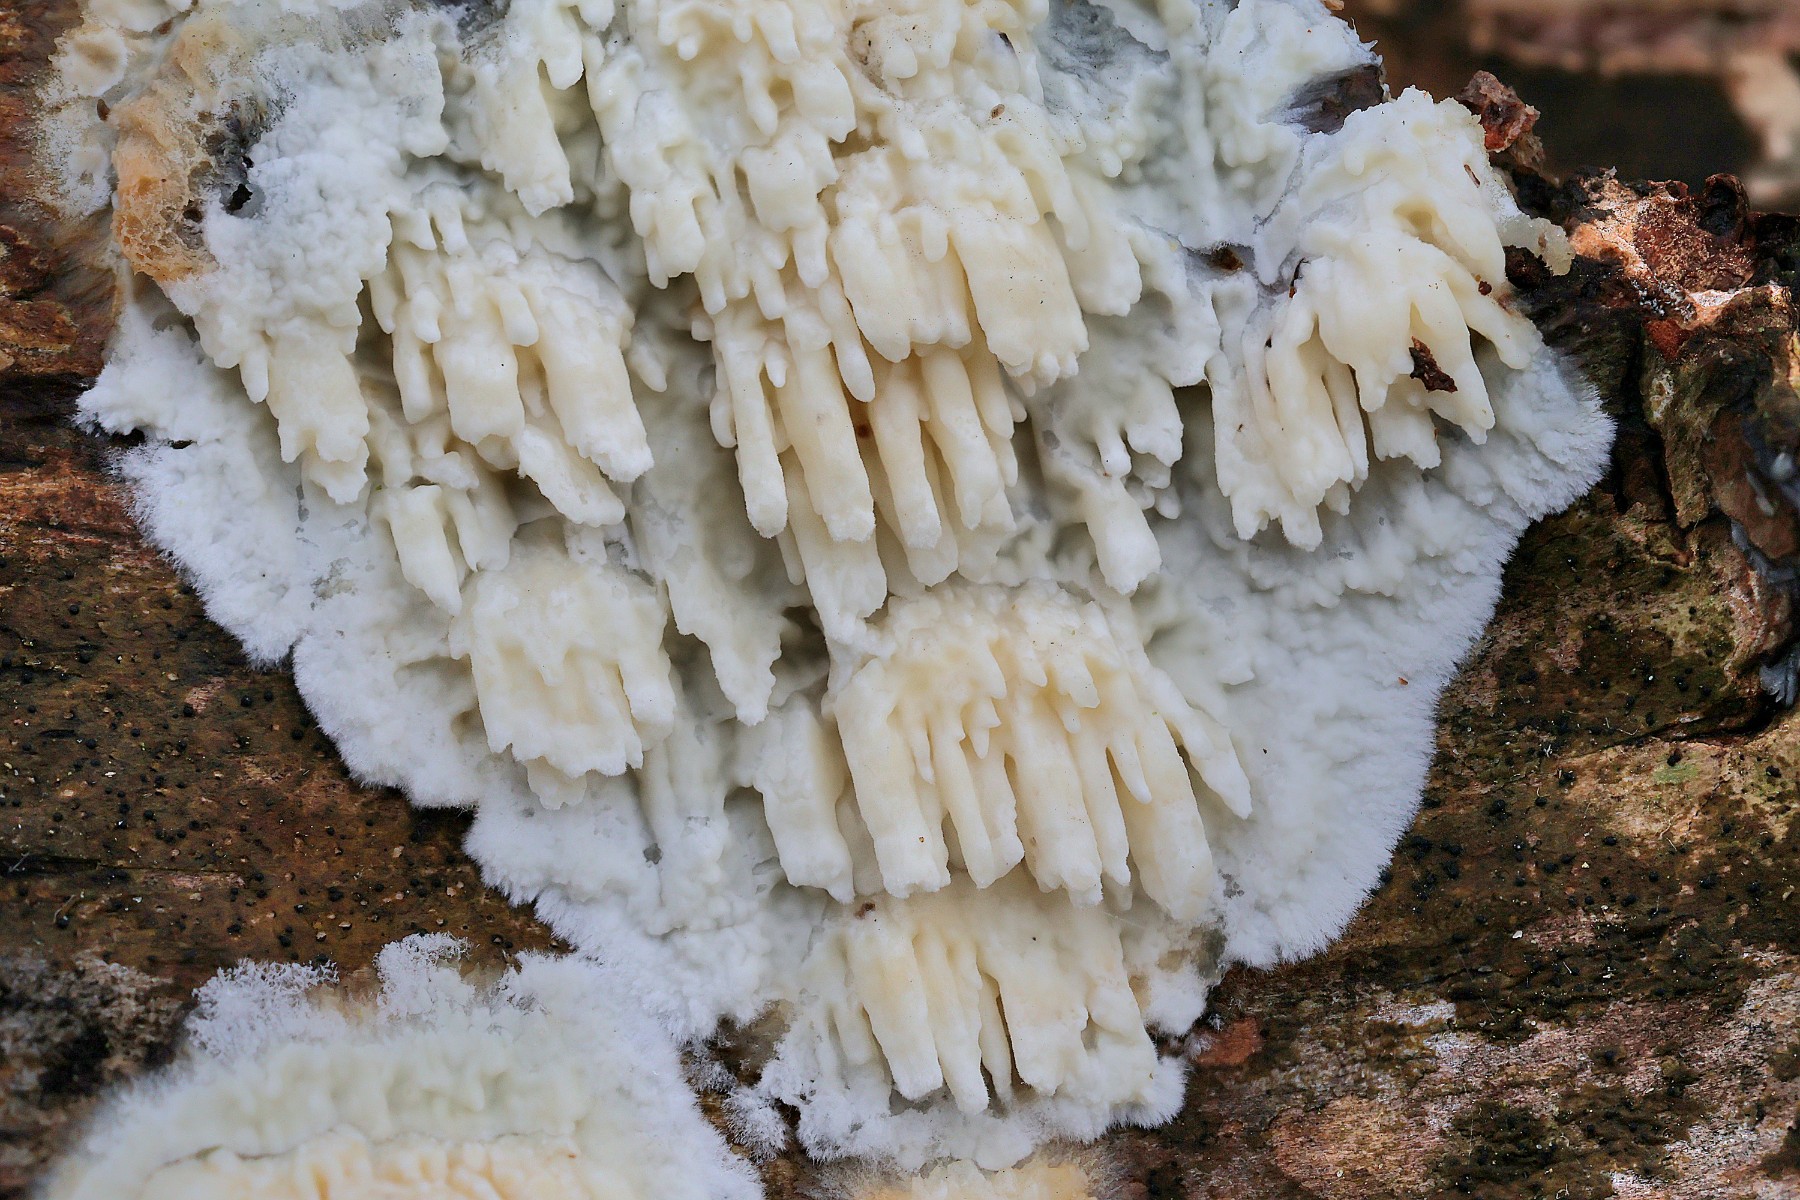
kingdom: Fungi
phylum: Basidiomycota
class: Agaricomycetes
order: Hymenochaetales
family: Schizoporaceae
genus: Xylodon
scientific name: Xylodon radula
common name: grovtandet kalkskind
